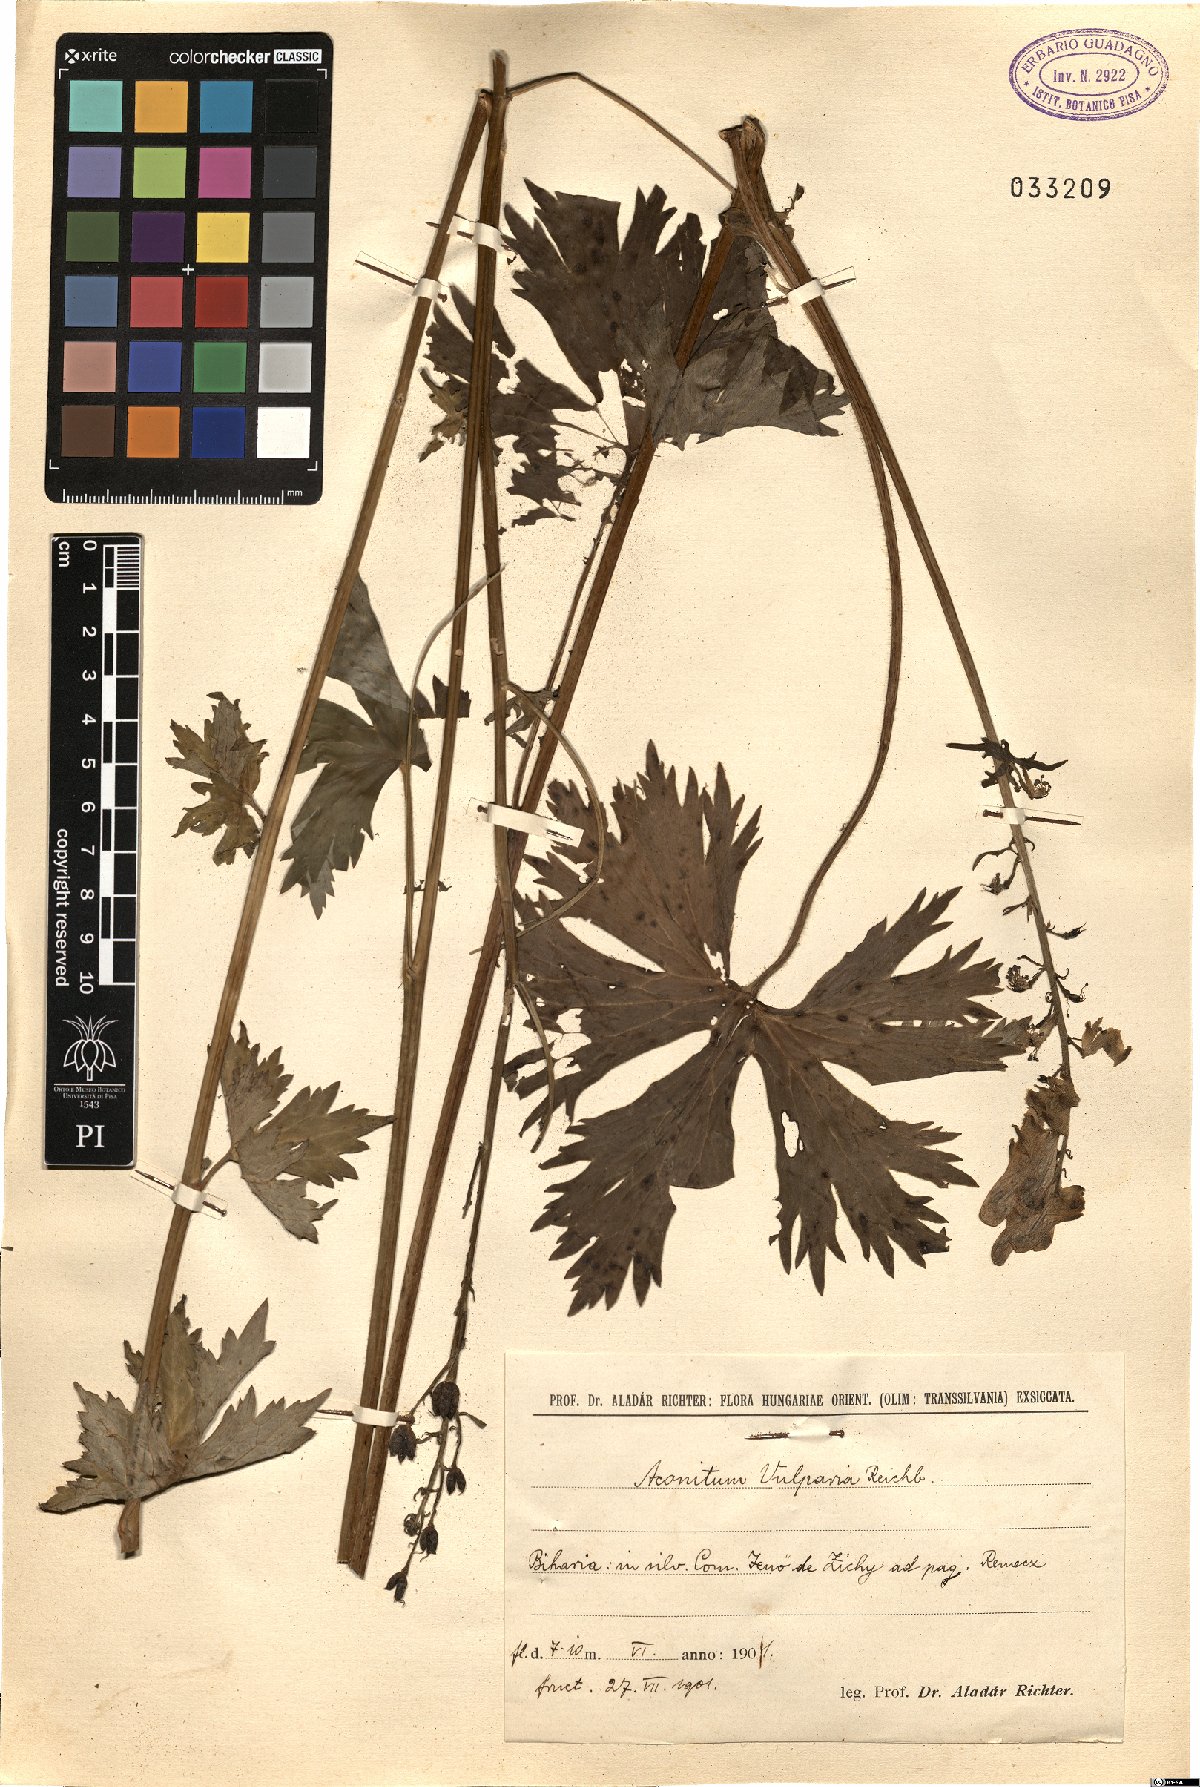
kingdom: Plantae
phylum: Tracheophyta
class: Magnoliopsida
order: Ranunculales
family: Ranunculaceae
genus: Aconitum
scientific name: Aconitum lycoctonum
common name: Wolf's-bane
